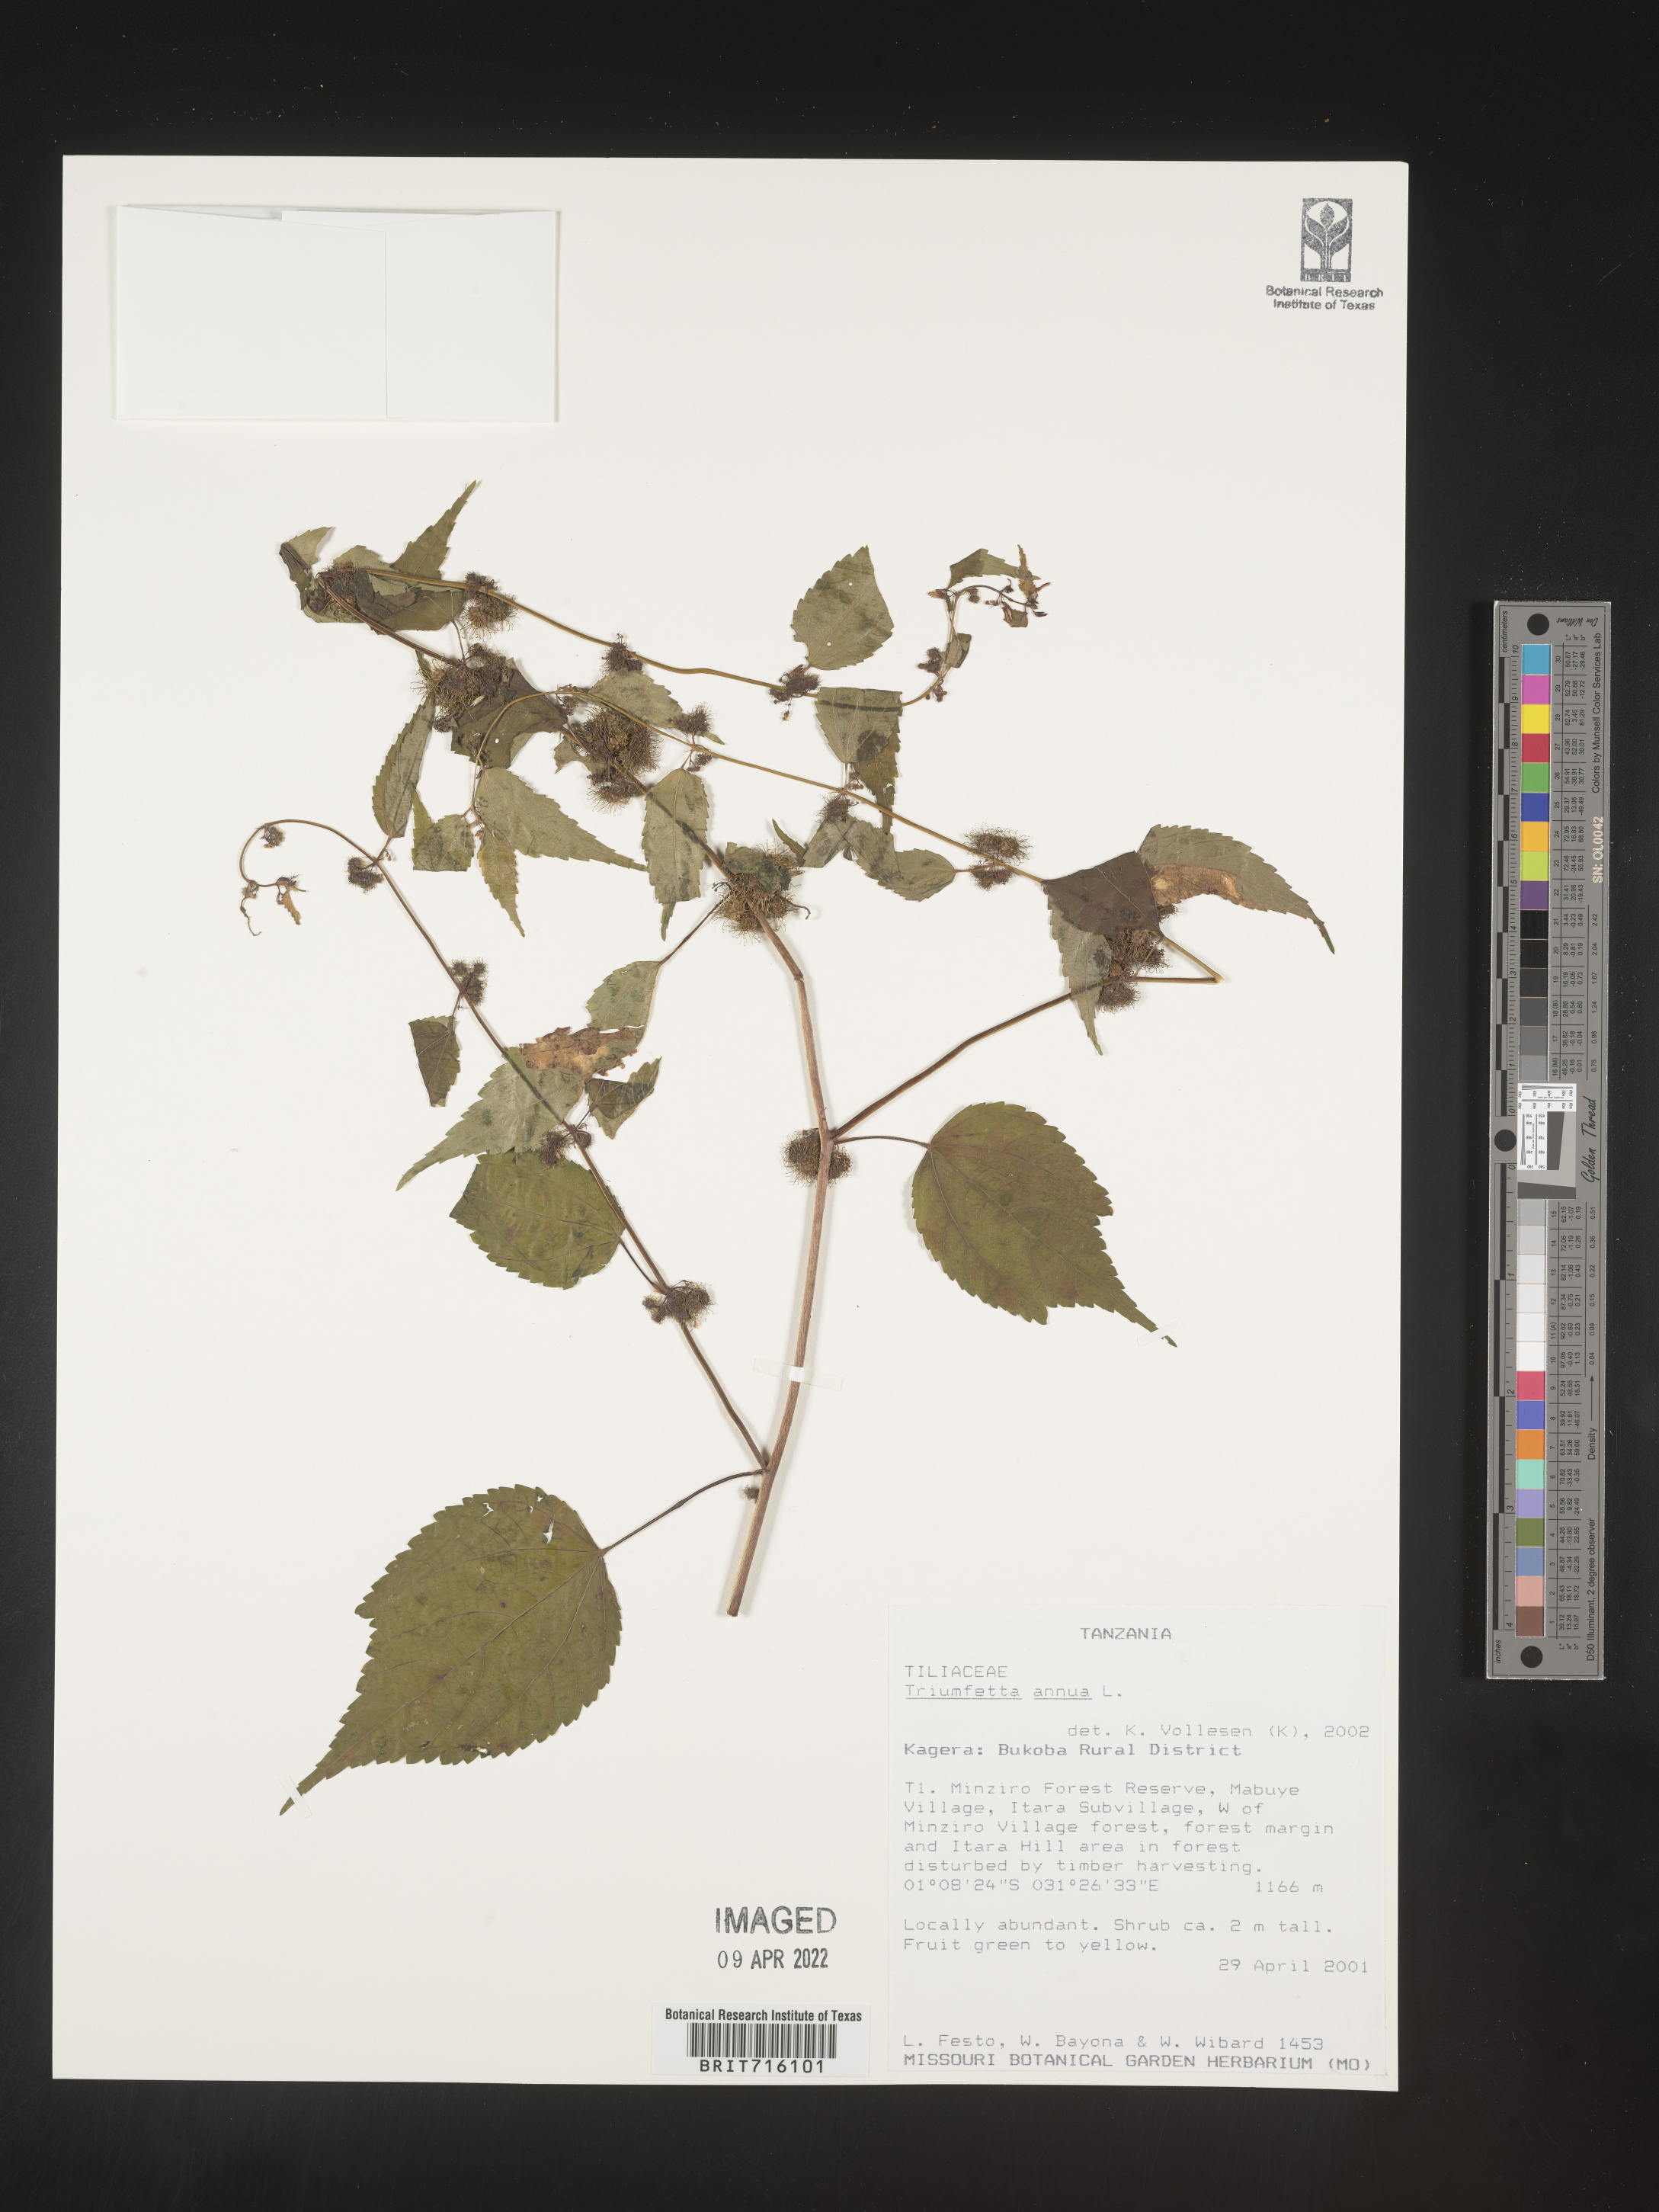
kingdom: Plantae
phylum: Tracheophyta
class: Magnoliopsida
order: Malvales
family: Malvaceae
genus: Triumfetta
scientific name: Triumfetta
